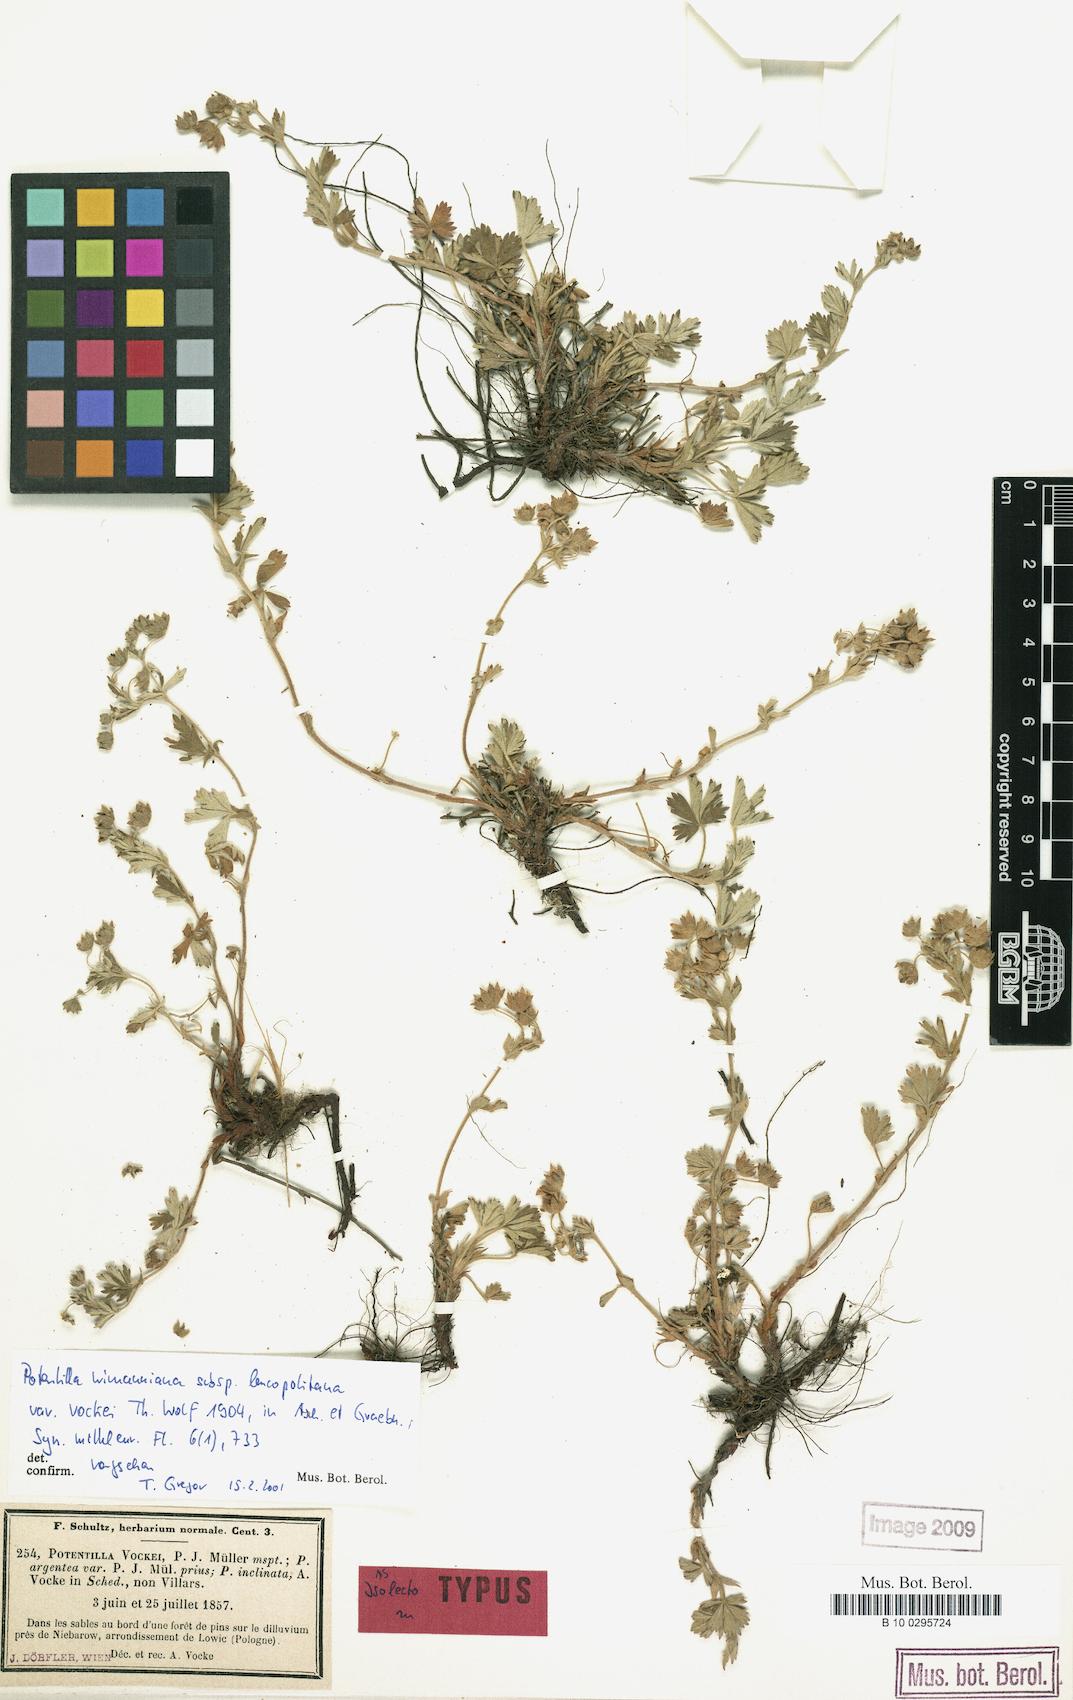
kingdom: Plantae
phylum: Tracheophyta
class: Magnoliopsida
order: Rosales
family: Rosaceae
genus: Potentilla
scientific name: Potentilla
